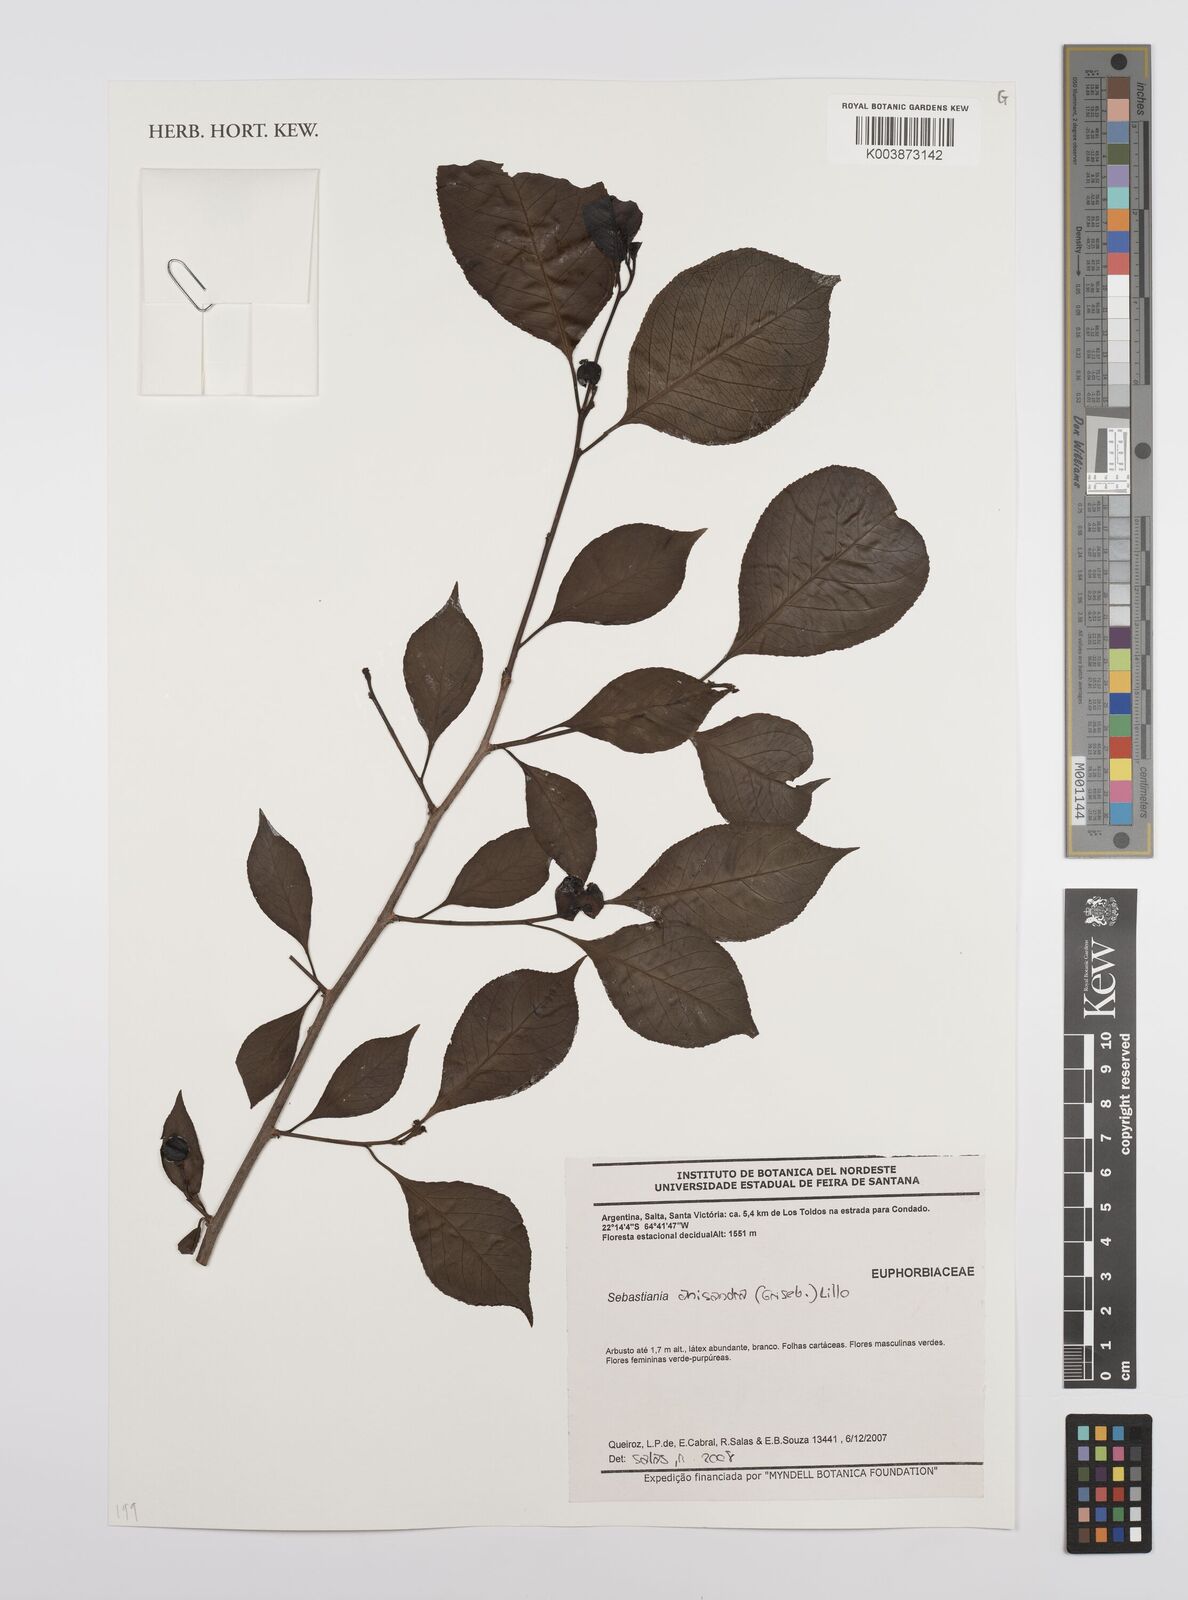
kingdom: Plantae
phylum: Tracheophyta
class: Magnoliopsida
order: Malpighiales
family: Euphorbiaceae
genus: Sebastiania
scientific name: Sebastiania ramosissima
